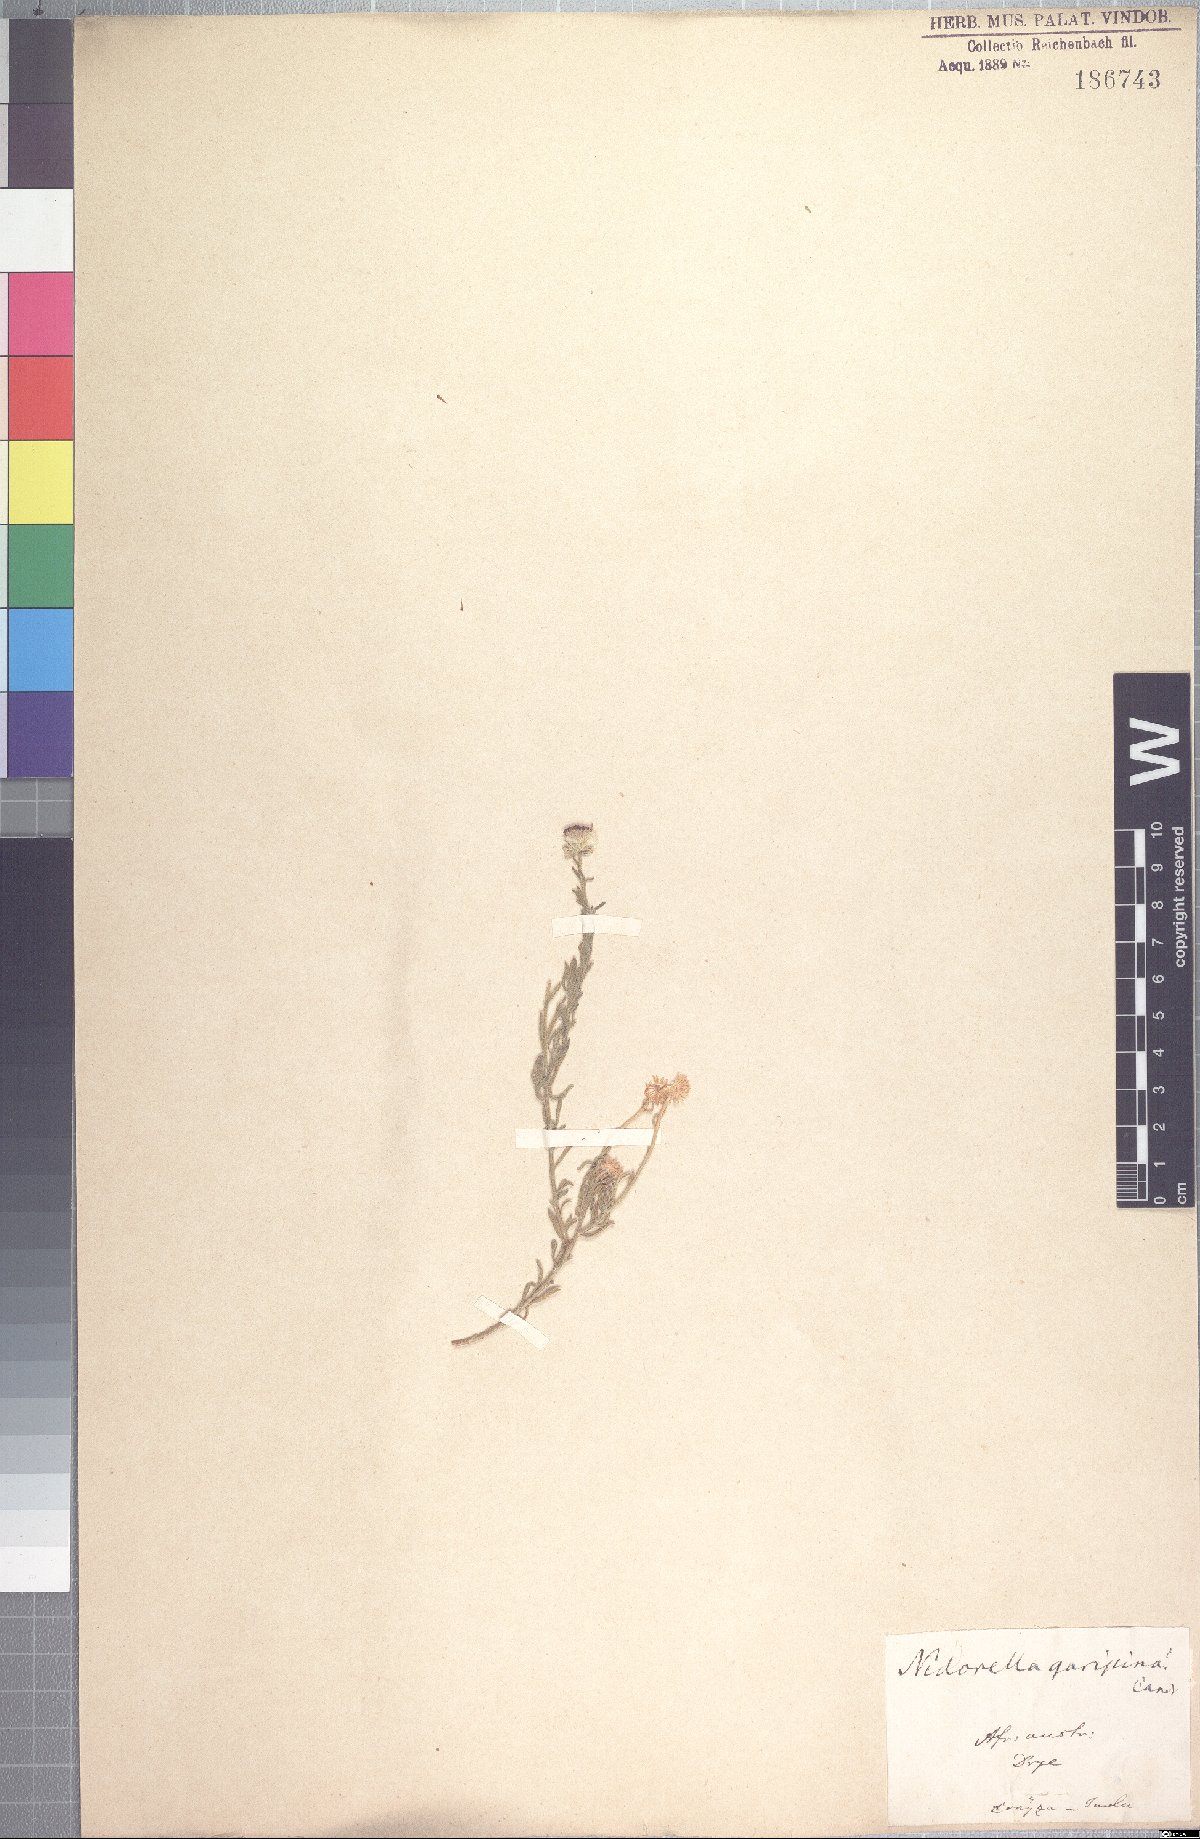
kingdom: Plantae
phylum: Tracheophyta
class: Magnoliopsida
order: Asterales
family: Asteraceae
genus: Nolletia
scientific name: Nolletia gariepina
